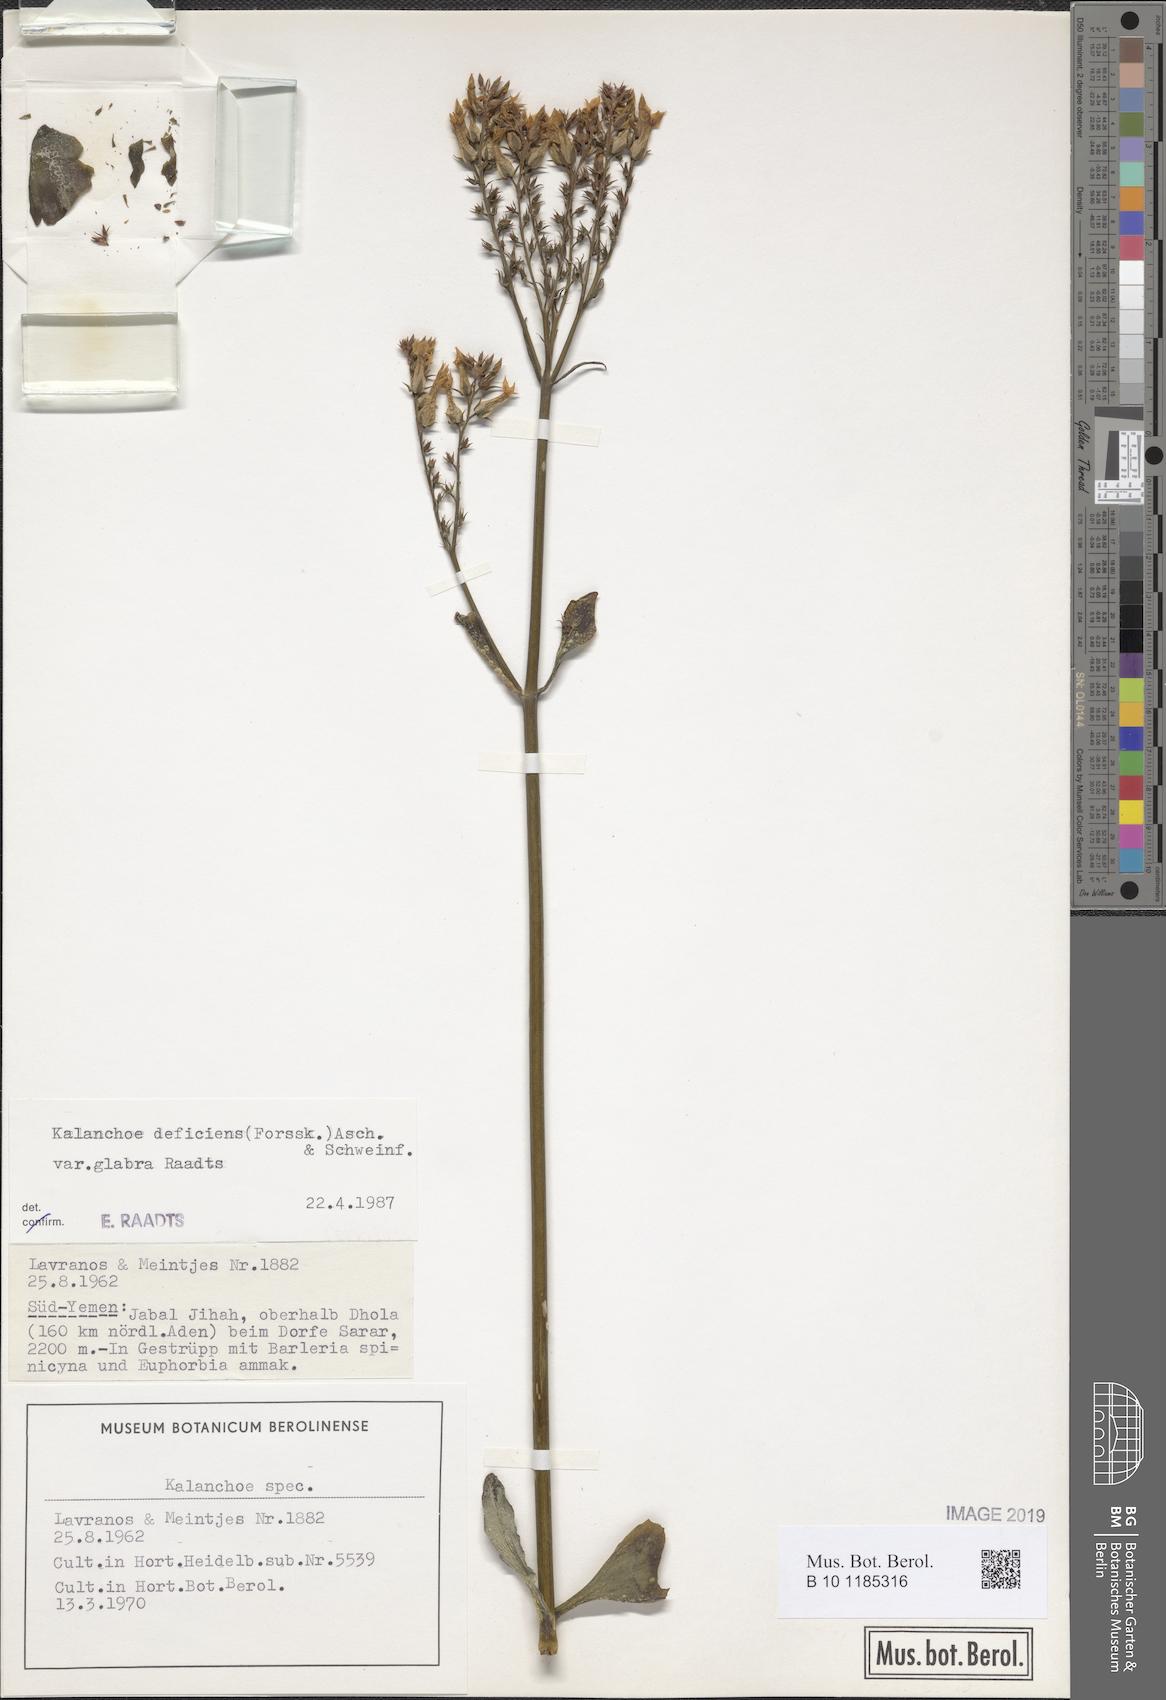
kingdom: Plantae
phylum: Tracheophyta
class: Magnoliopsida
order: Saxifragales
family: Crassulaceae
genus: Kalanchoe
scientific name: Kalanchoe deficiens
